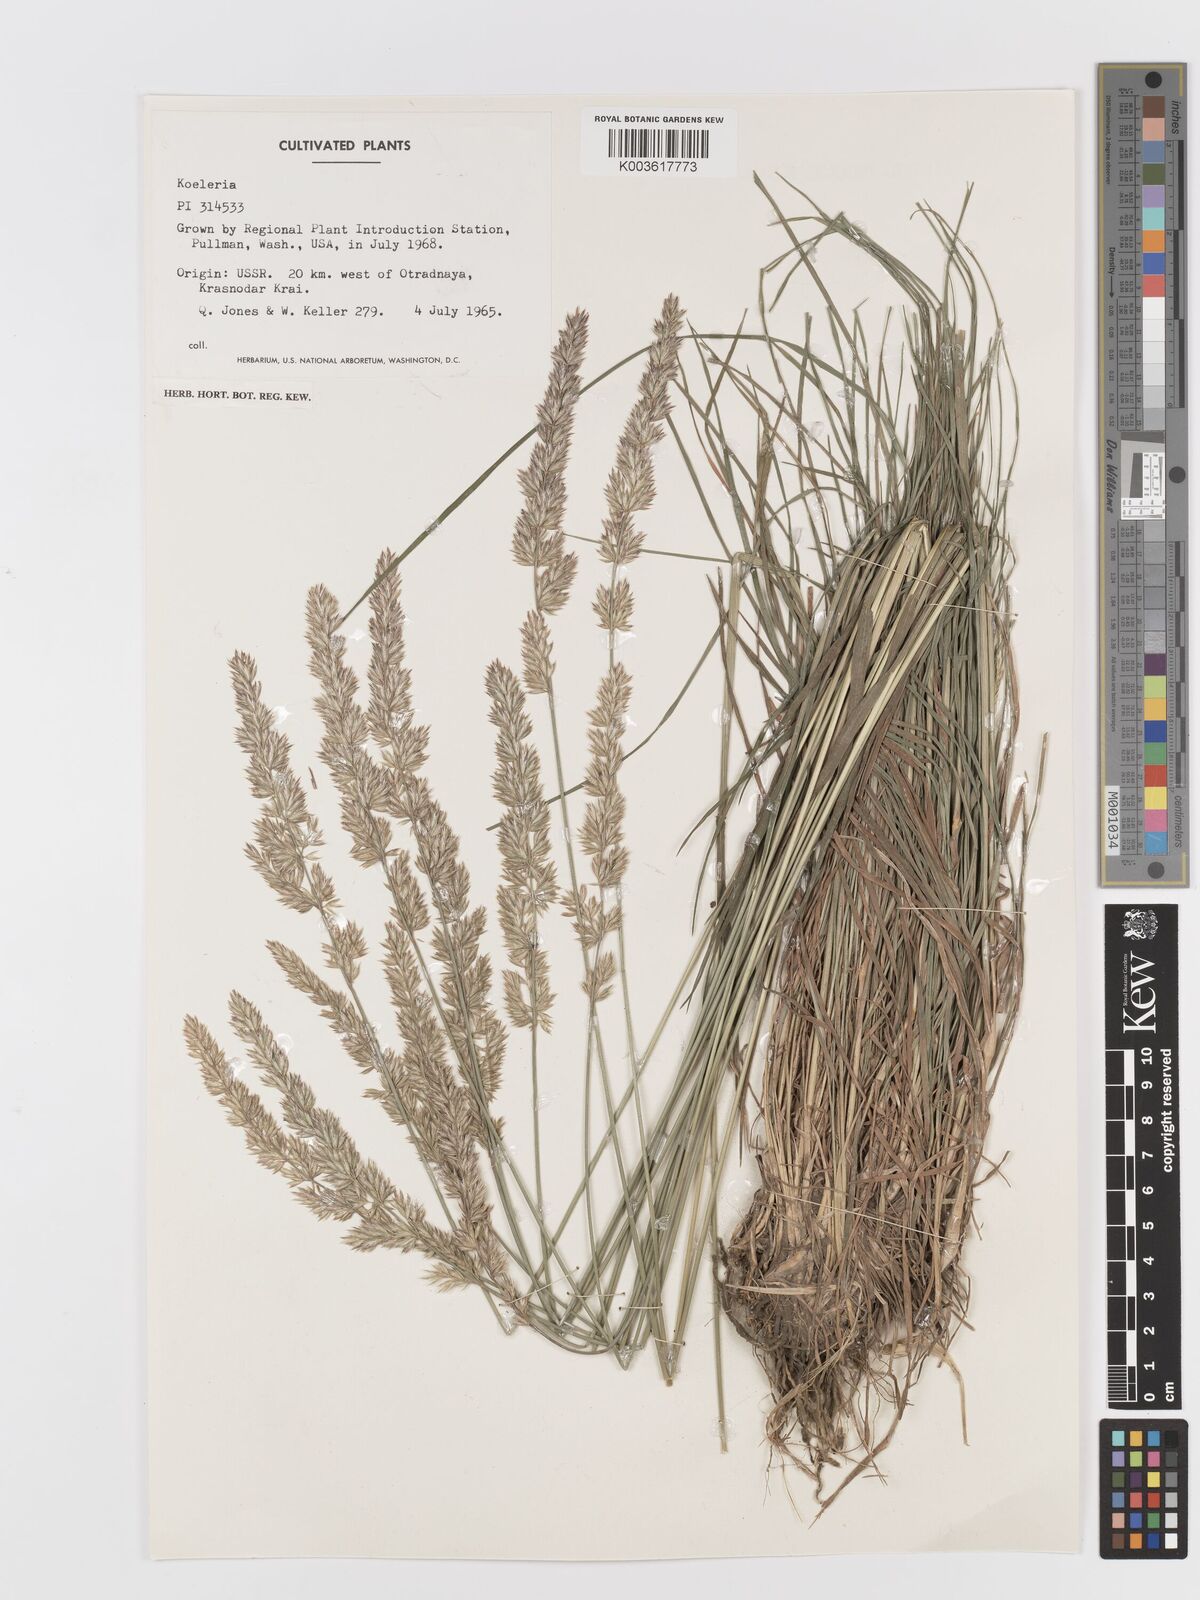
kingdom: Plantae
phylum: Tracheophyta
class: Liliopsida
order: Poales
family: Poaceae
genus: Koeleria
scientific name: Koeleria
